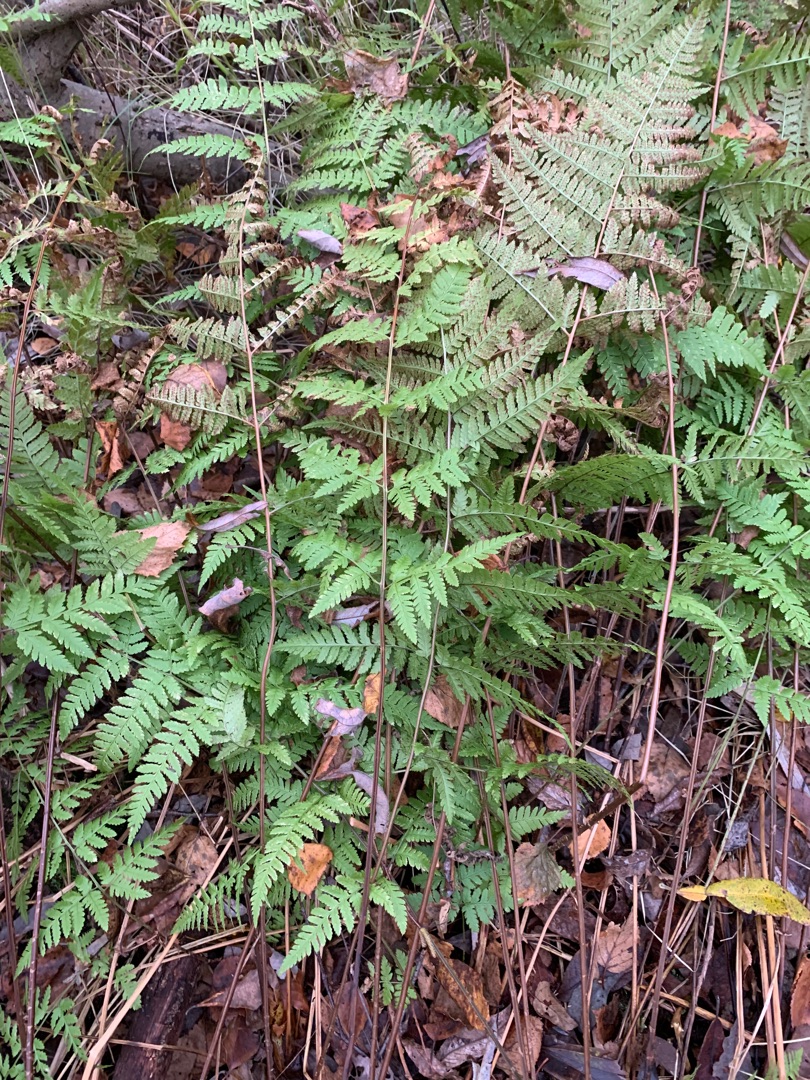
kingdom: Plantae
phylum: Tracheophyta
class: Polypodiopsida
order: Polypodiales
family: Dryopteridaceae
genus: Dryopteris
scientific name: Dryopteris carthusiana
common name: Smalbladet mangeløv
